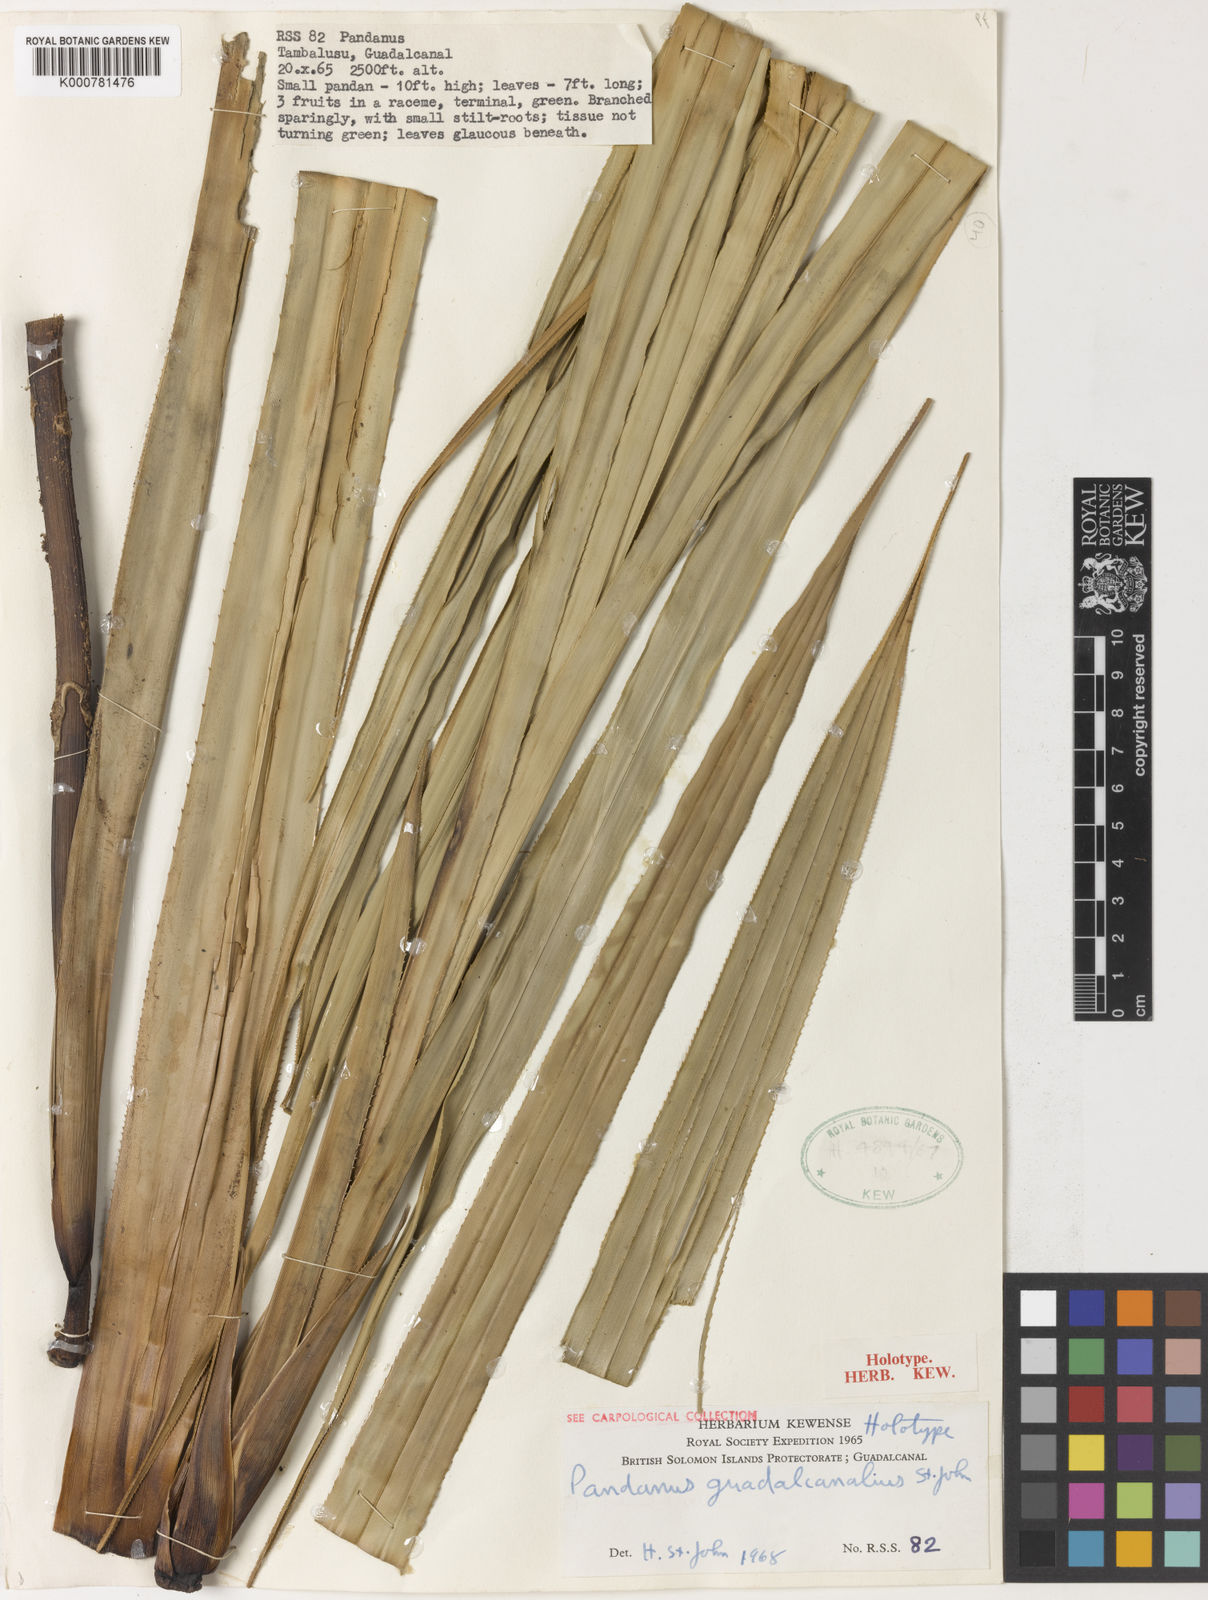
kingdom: Plantae
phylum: Tracheophyta
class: Liliopsida
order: Pandanales
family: Pandanaceae
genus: Pandanus
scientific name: Pandanus
